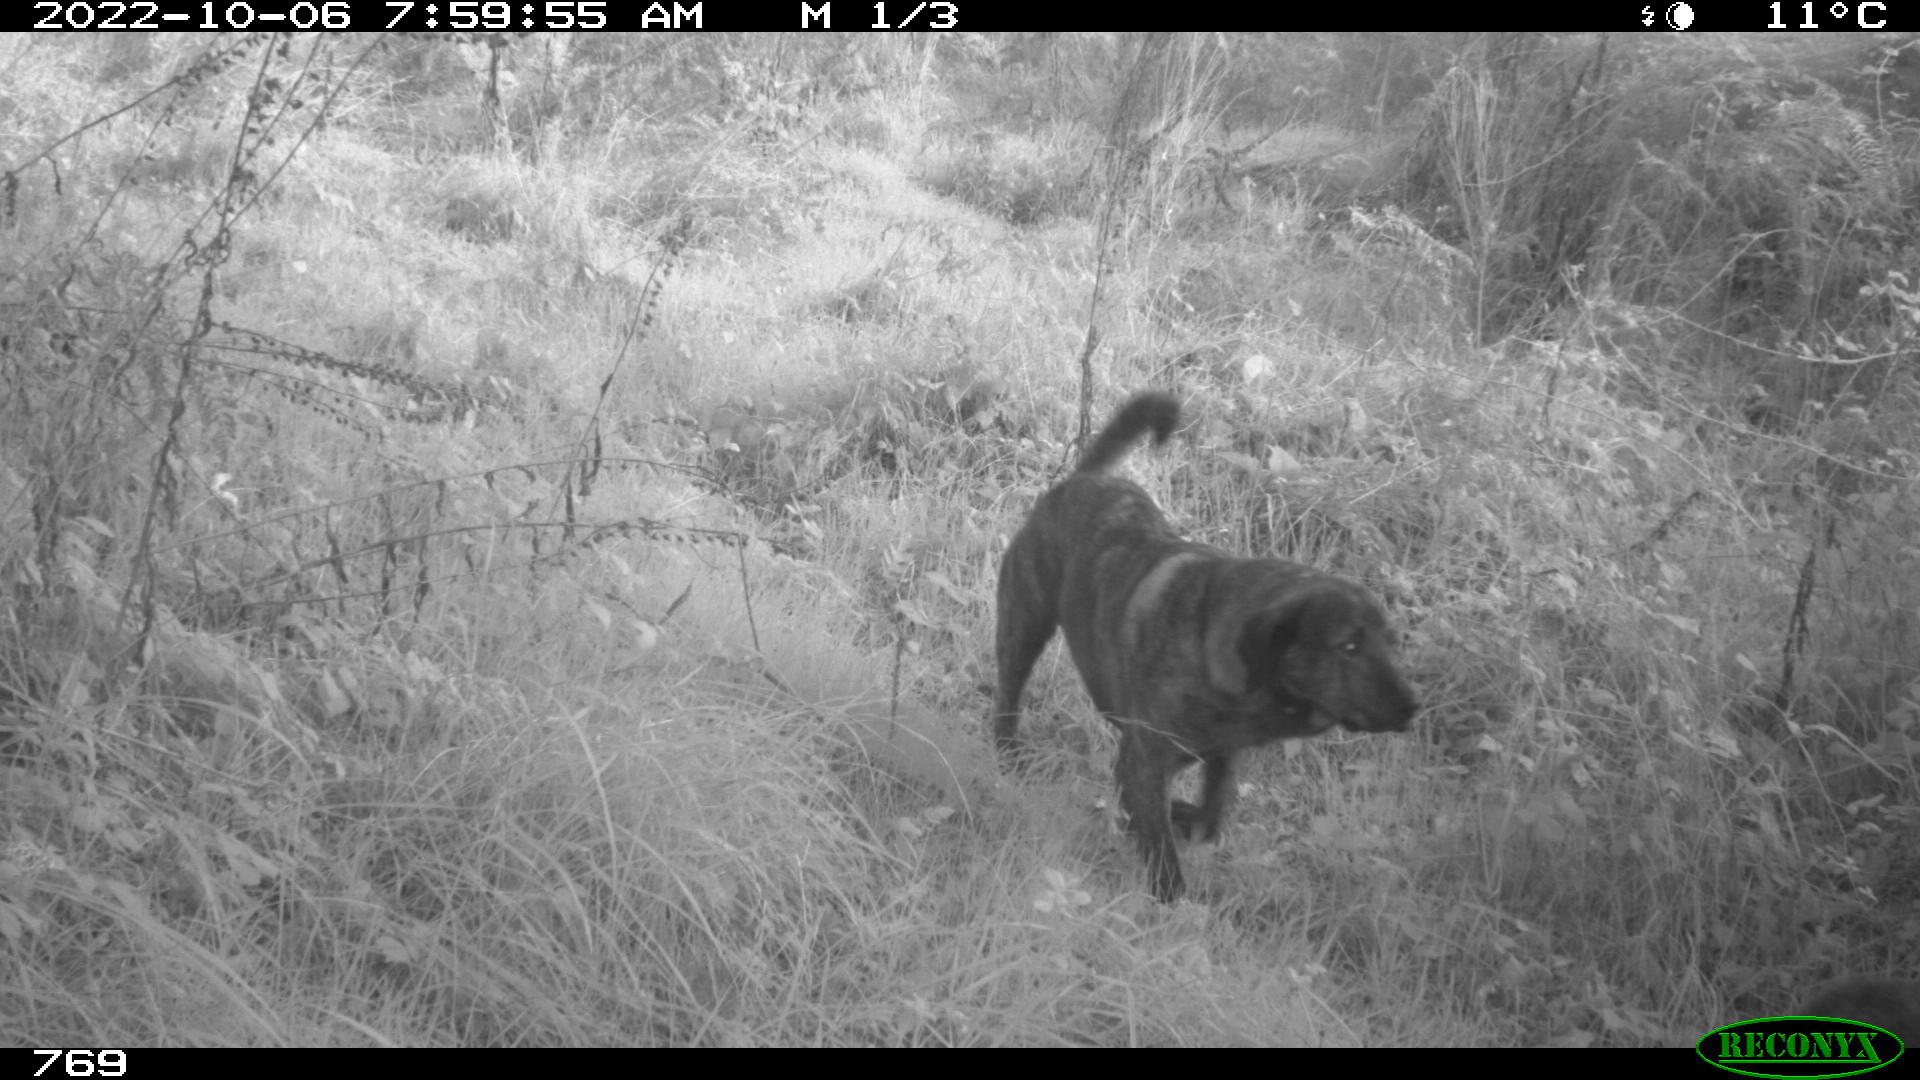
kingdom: Animalia
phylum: Chordata
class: Mammalia
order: Carnivora
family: Canidae
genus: Canis
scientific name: Canis lupus
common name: Gray wolf
